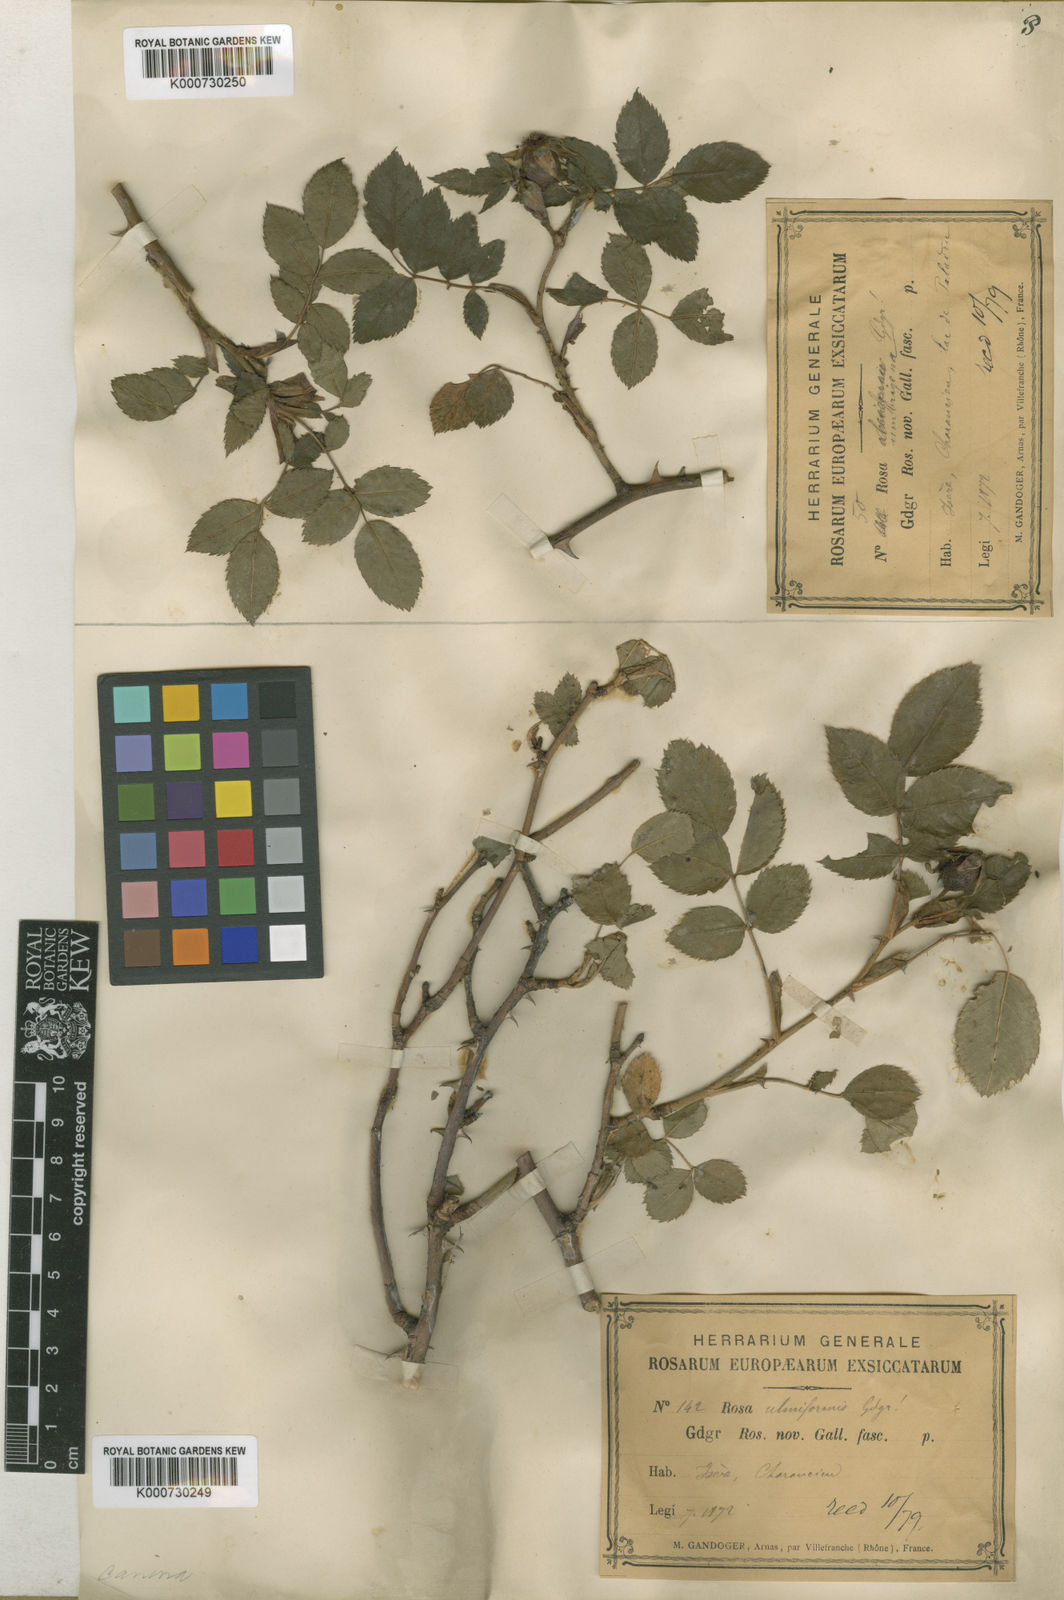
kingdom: Plantae
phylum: Tracheophyta
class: Magnoliopsida
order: Rosales
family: Rosaceae
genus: Rosa
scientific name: Rosa canina
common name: Dog rose
